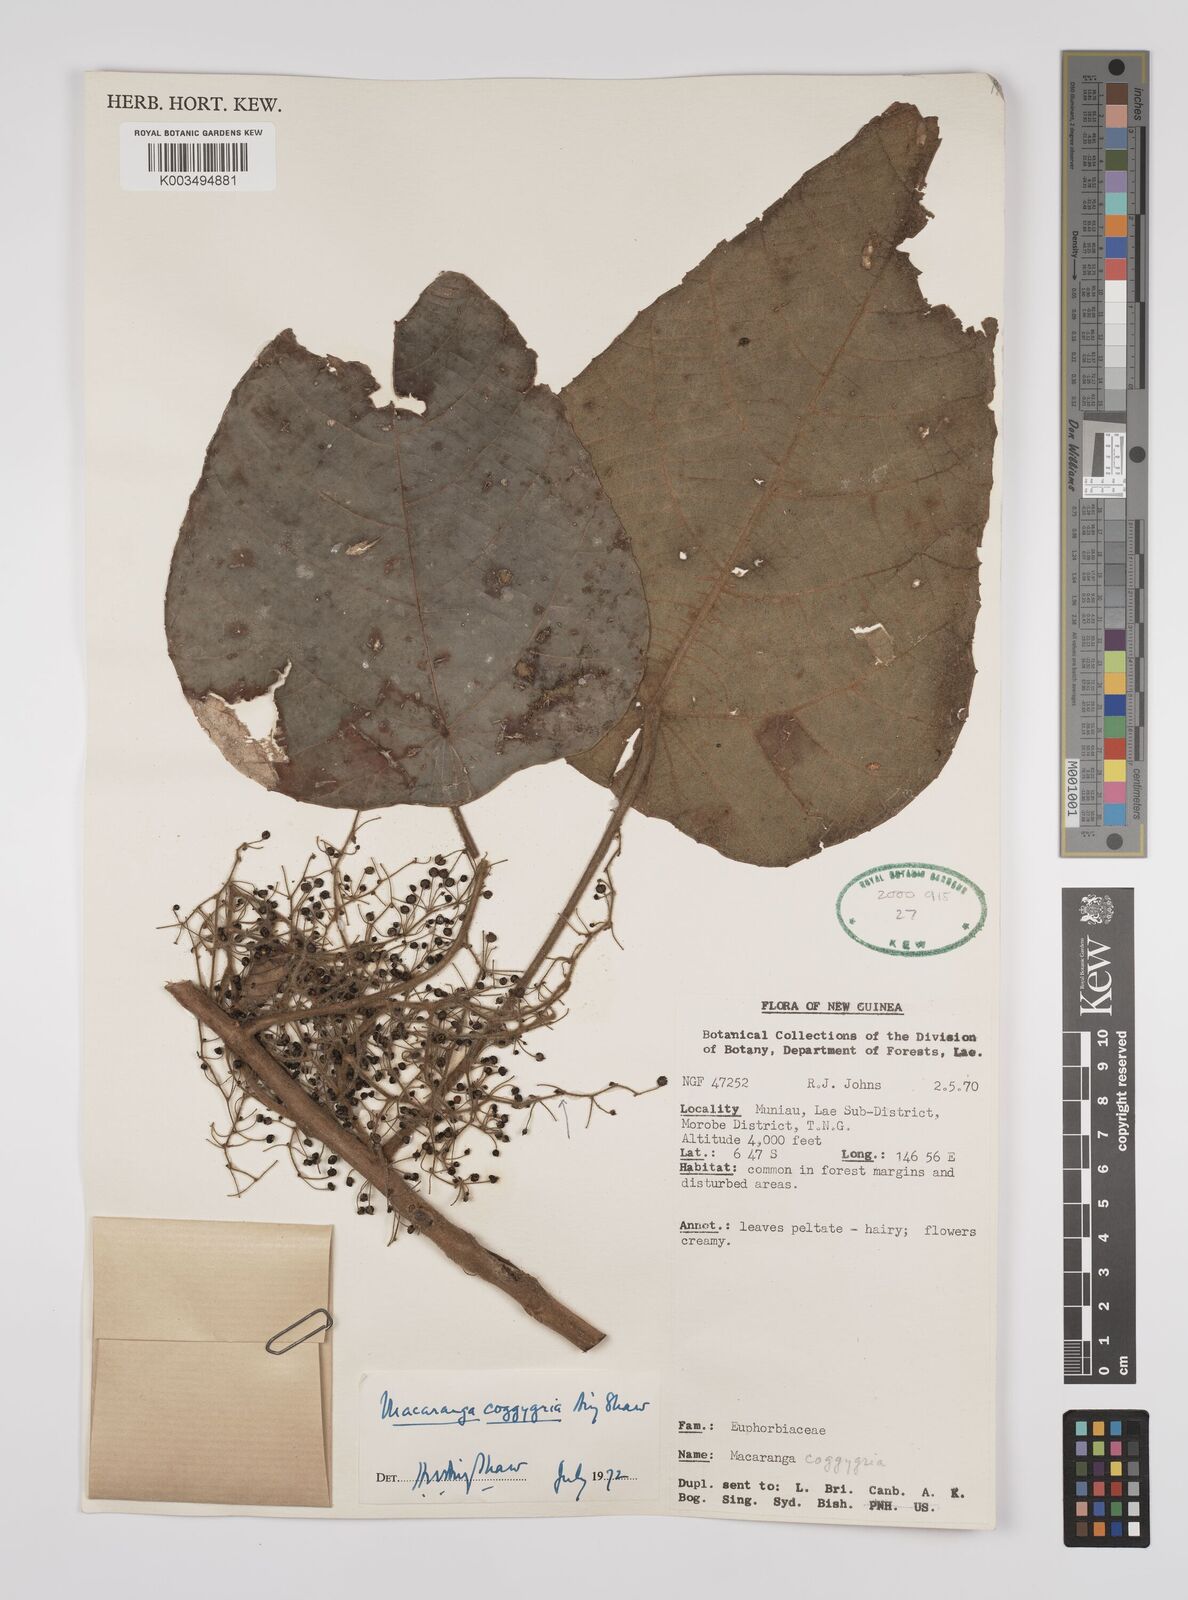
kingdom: Plantae
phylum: Tracheophyta
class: Magnoliopsida
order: Malpighiales
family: Euphorbiaceae
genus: Macaranga
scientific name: Macaranga coggygria
